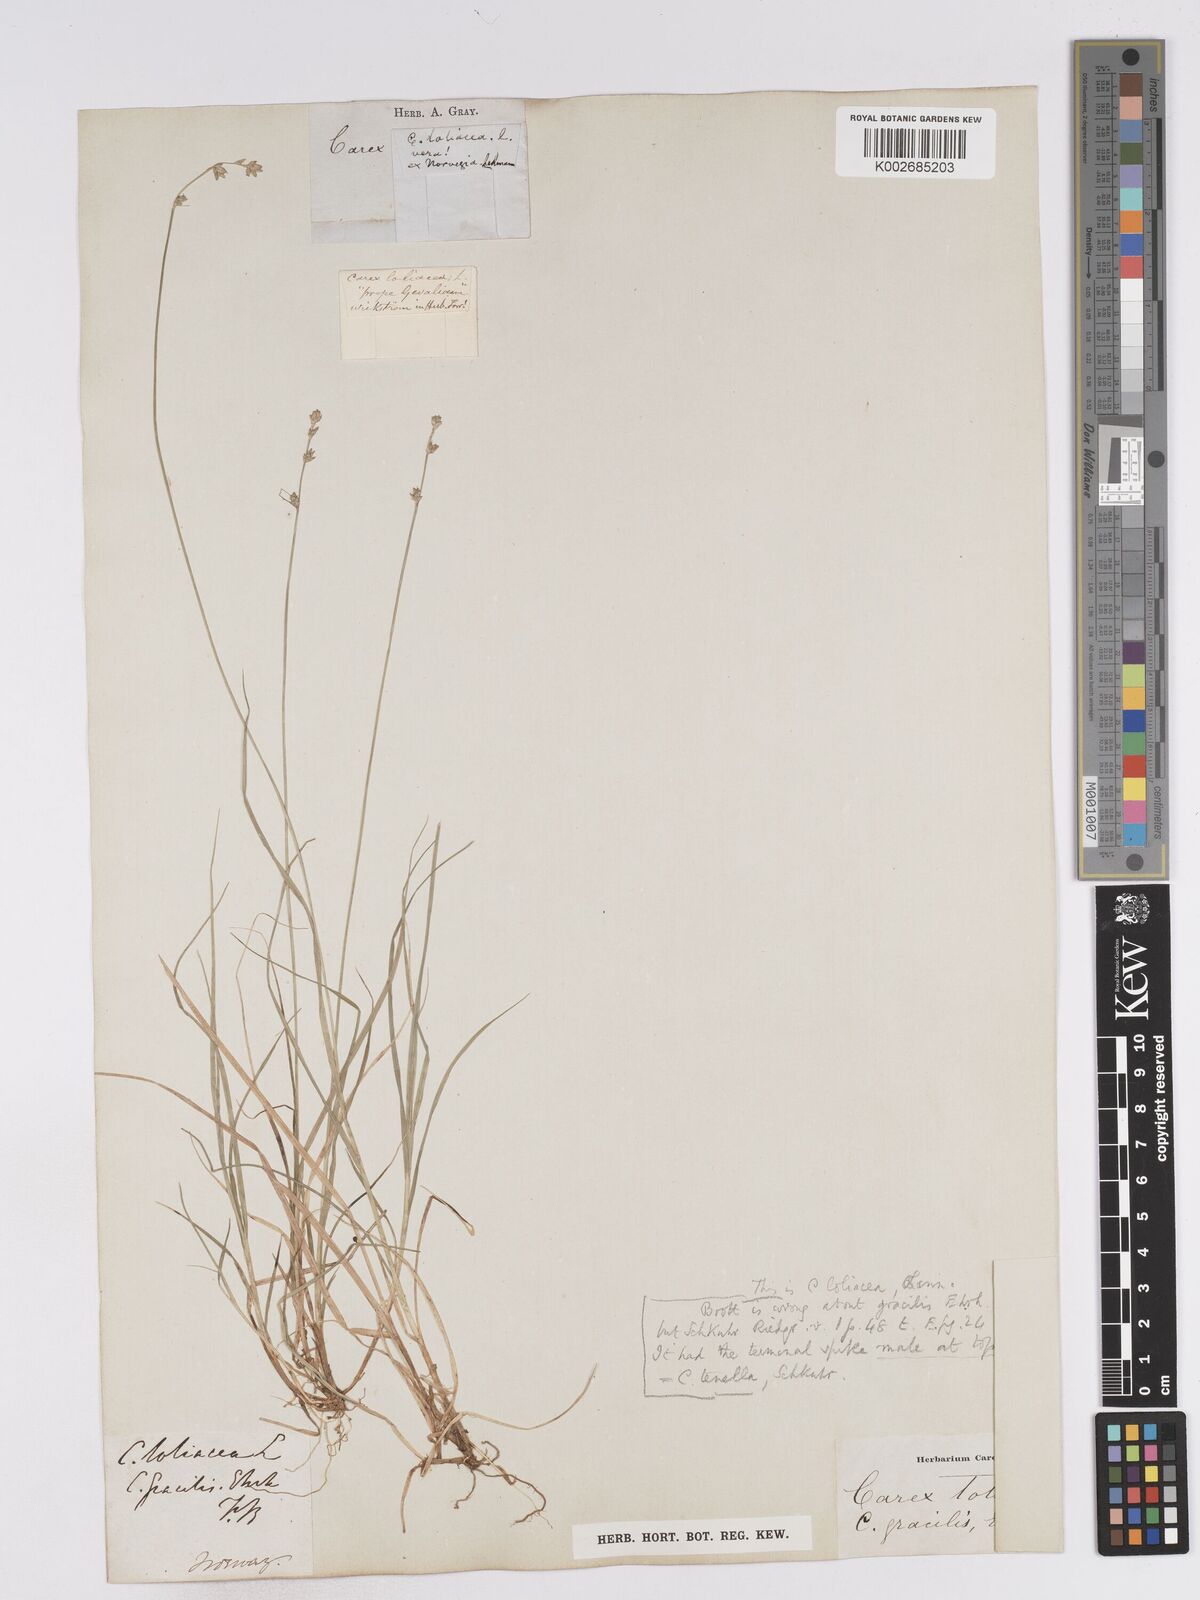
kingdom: Plantae
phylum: Tracheophyta
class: Liliopsida
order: Poales
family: Cyperaceae
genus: Carex
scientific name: Carex loliacea
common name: Ryegrass sedge
